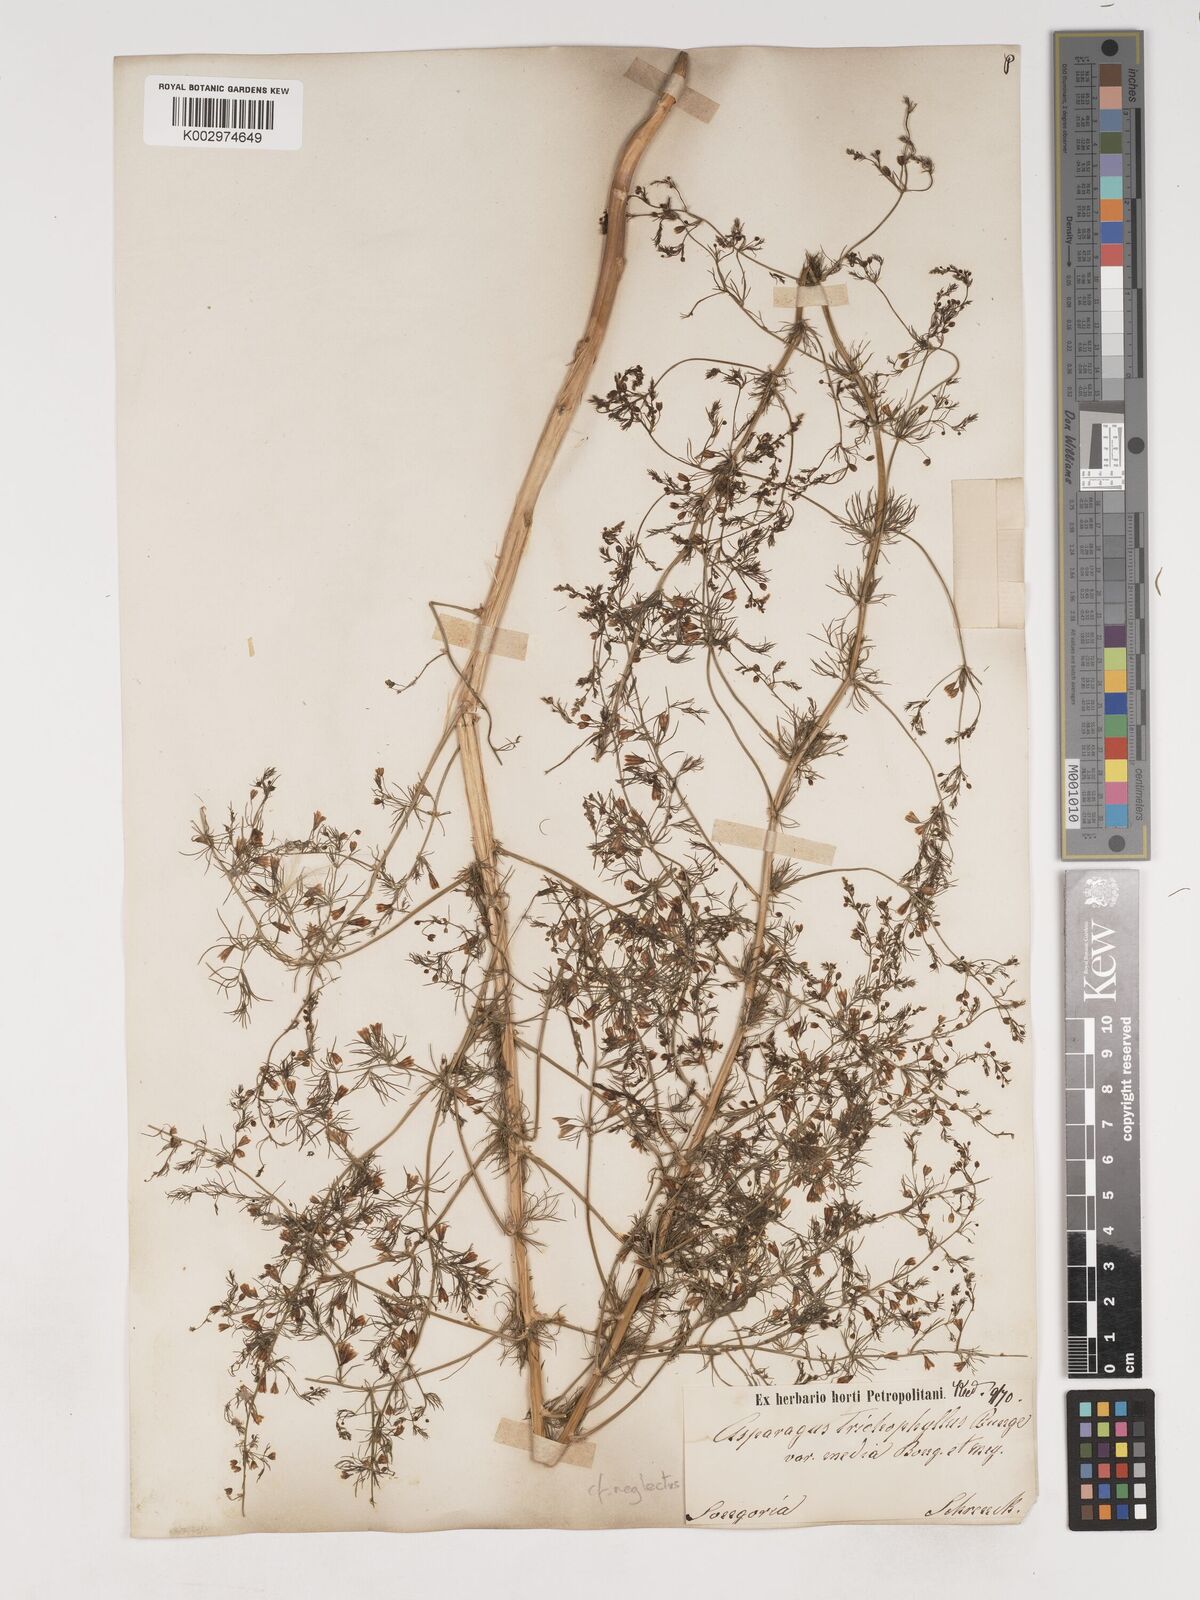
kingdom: Plantae
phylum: Tracheophyta
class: Liliopsida
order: Asparagales
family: Asparagaceae
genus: Asparagus
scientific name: Asparagus neglectus
